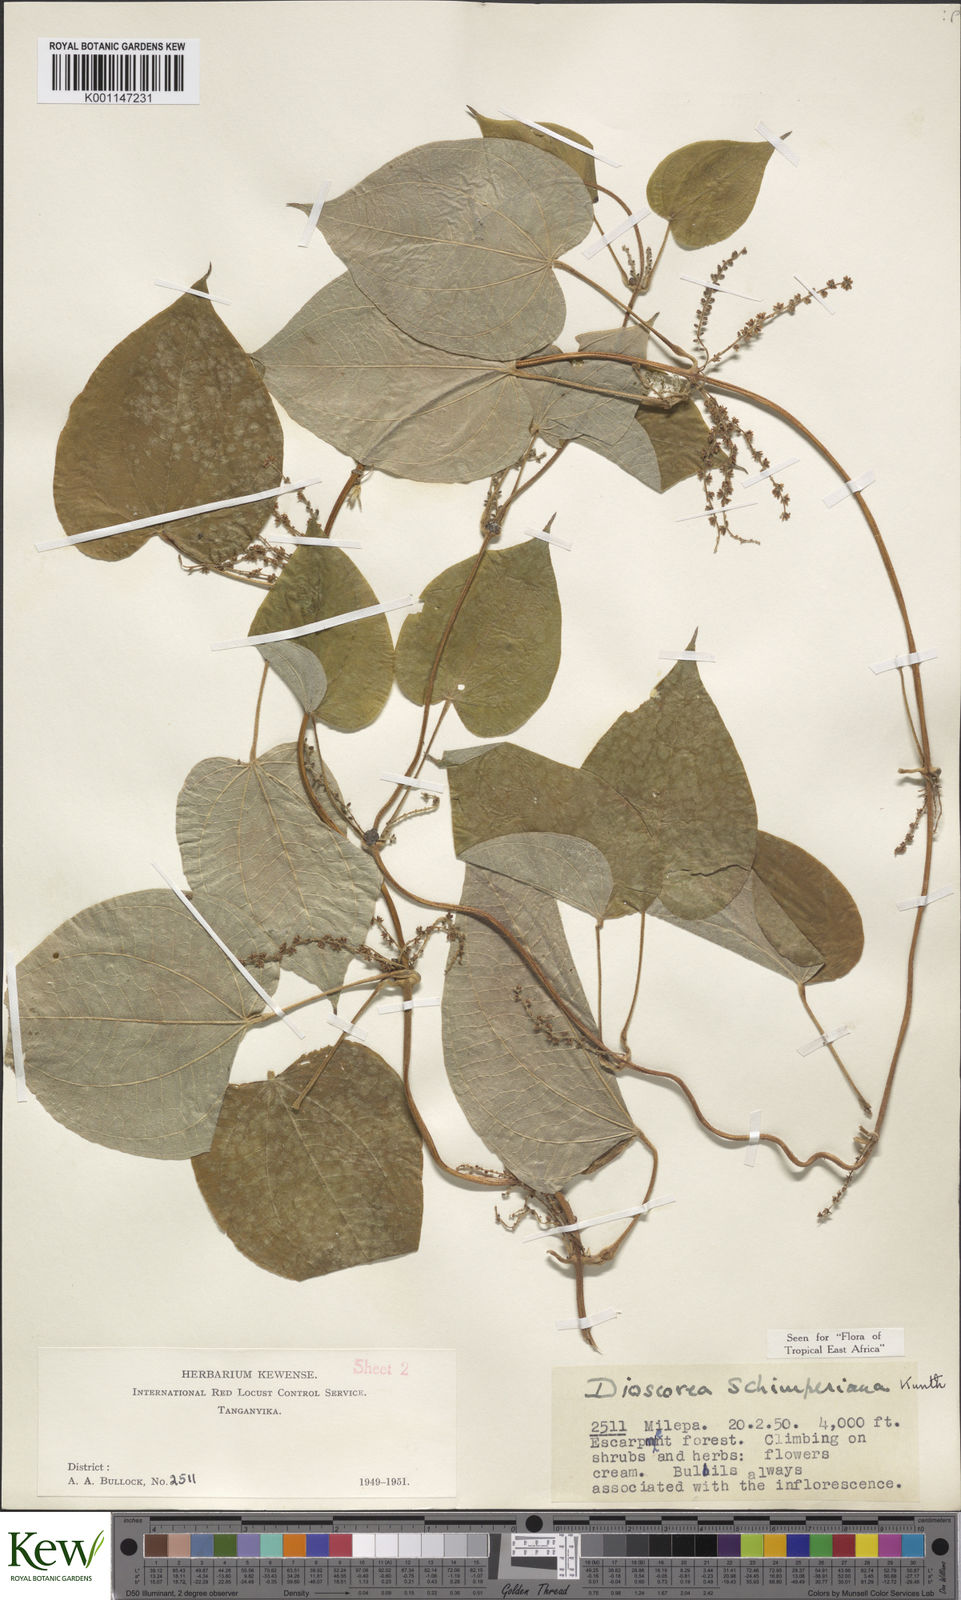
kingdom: Plantae
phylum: Tracheophyta
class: Liliopsida
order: Dioscoreales
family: Dioscoreaceae
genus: Dioscorea
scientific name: Dioscorea schimperiana
